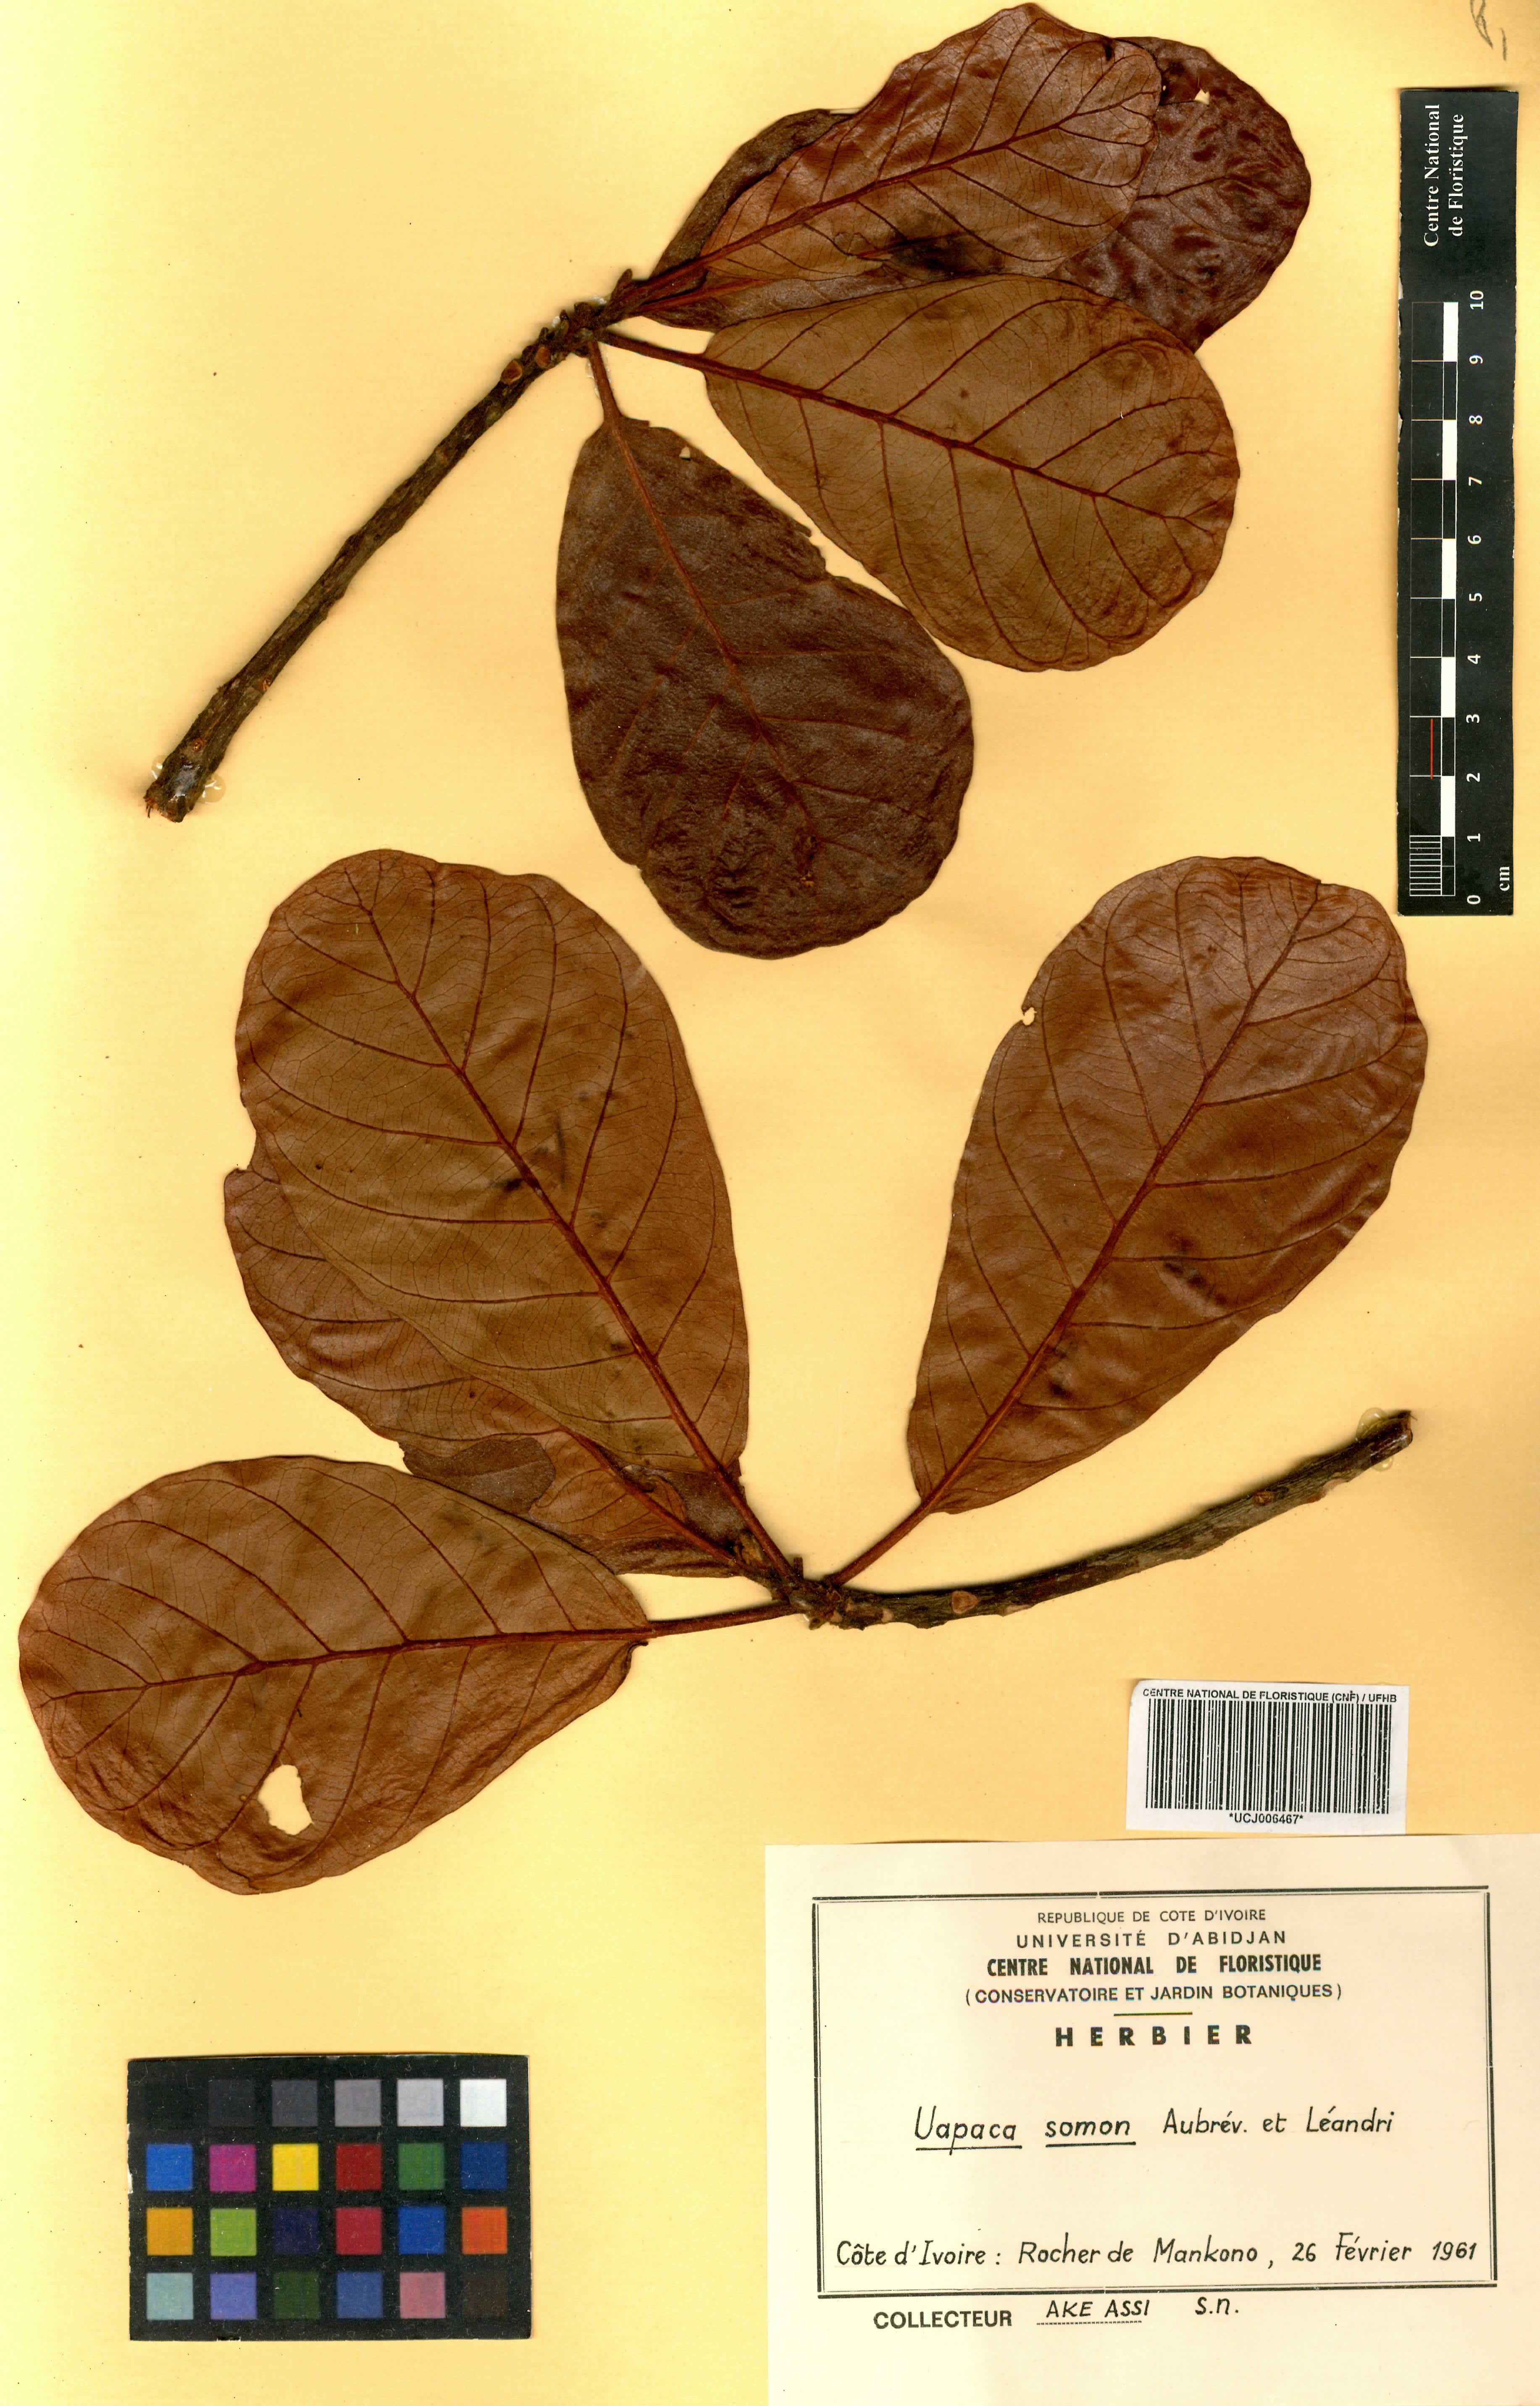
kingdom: Plantae
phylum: Tracheophyta
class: Magnoliopsida
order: Malpighiales
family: Phyllanthaceae
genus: Uapaca
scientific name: Uapaca togoensis
